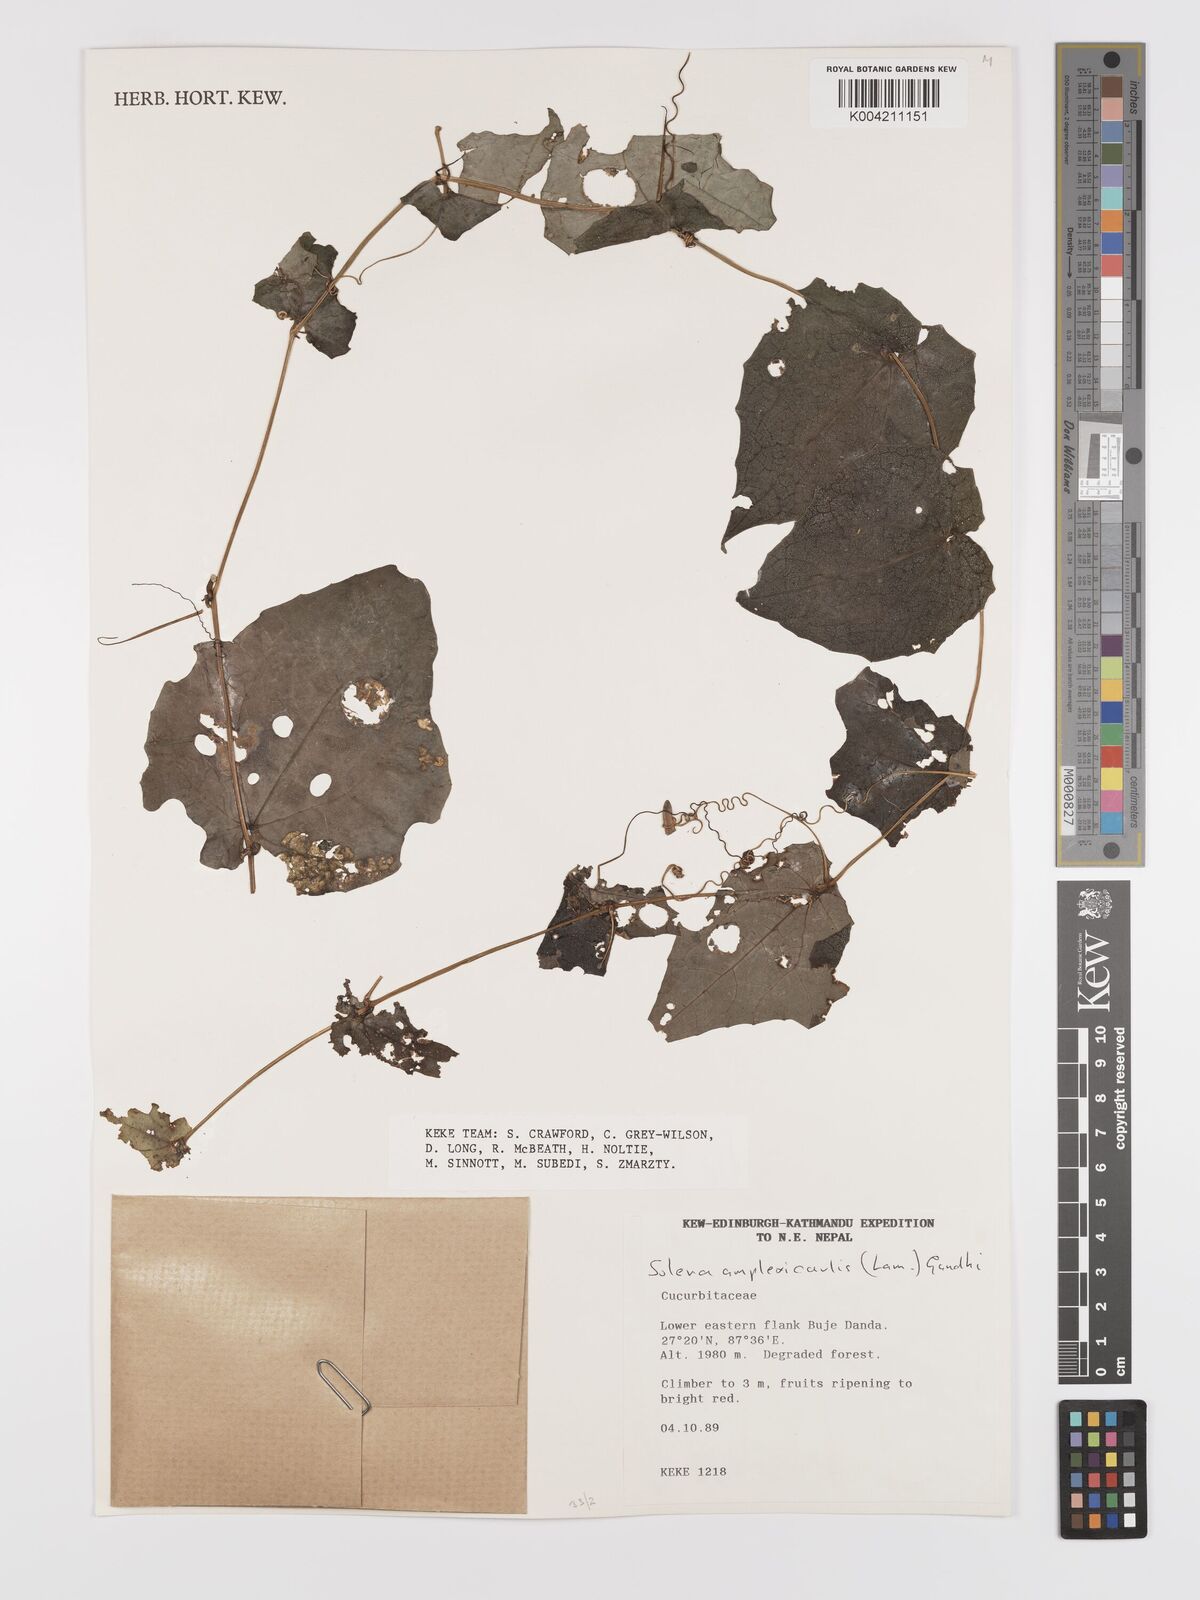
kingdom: Plantae
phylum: Tracheophyta
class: Magnoliopsida
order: Cucurbitales
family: Cucurbitaceae
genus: Solena
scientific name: Solena
